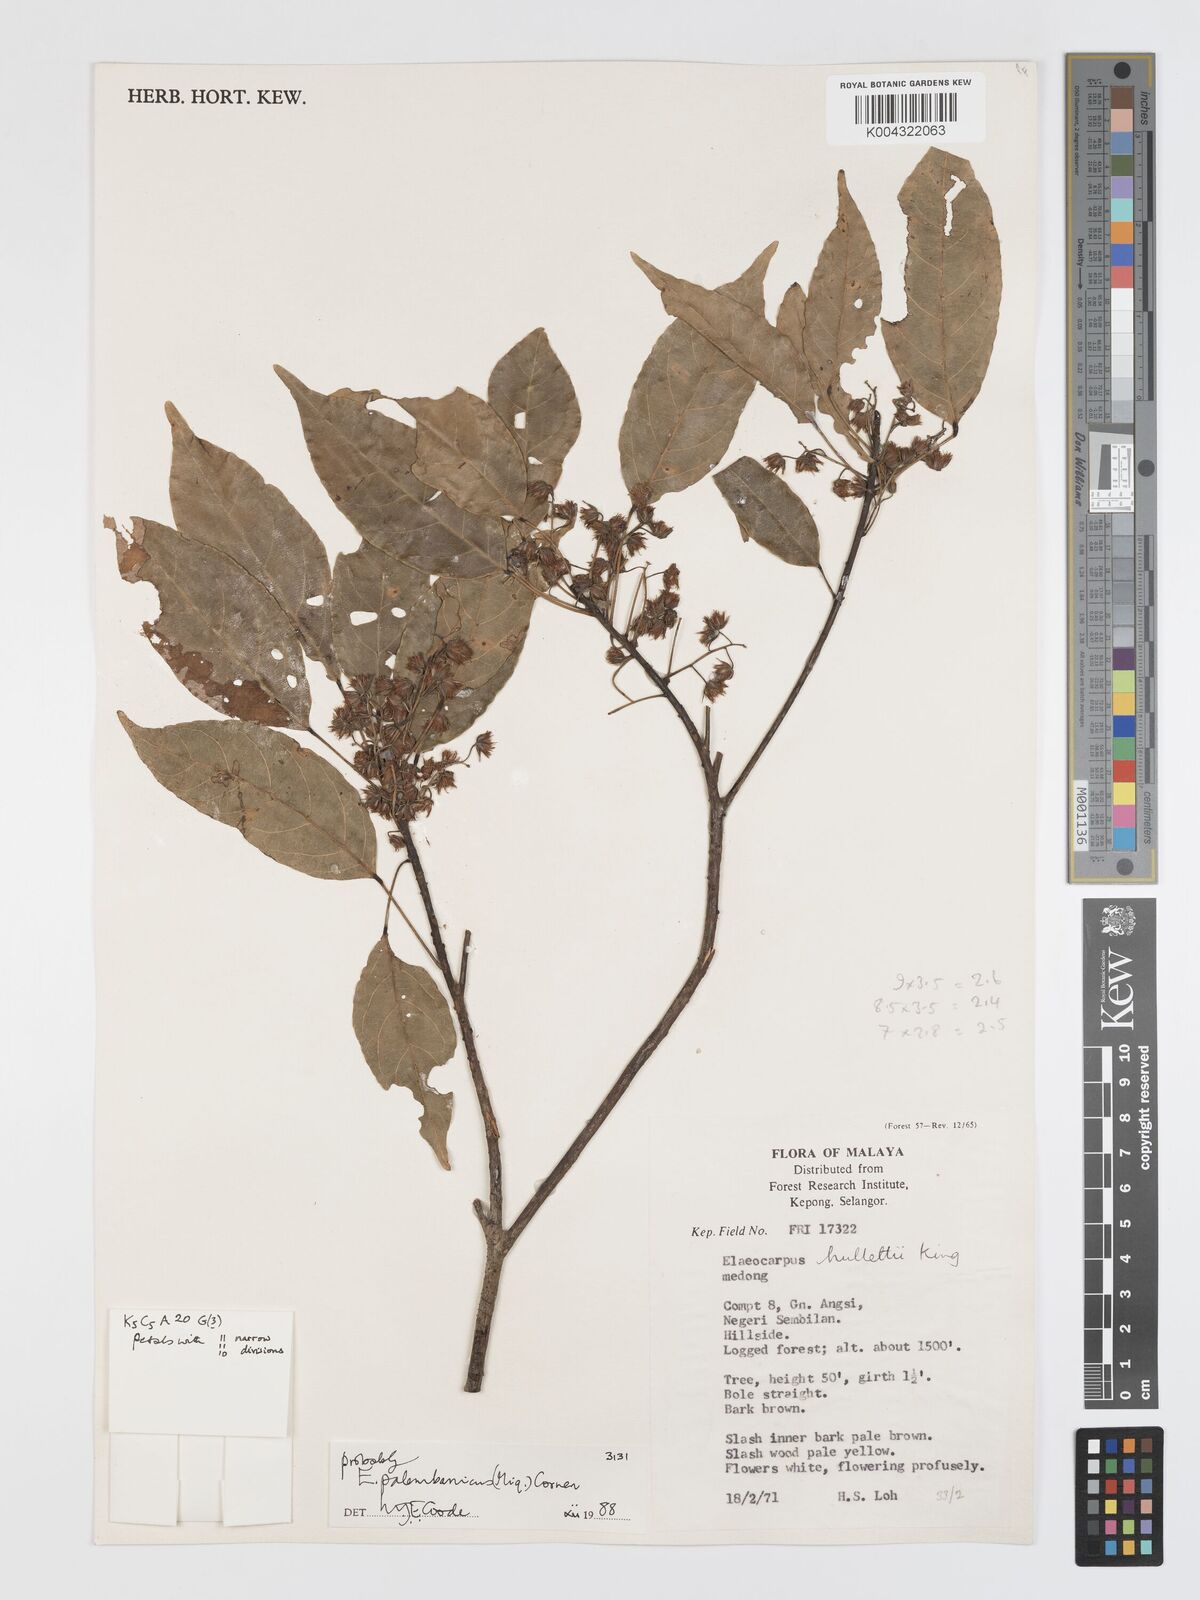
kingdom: Plantae
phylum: Tracheophyta
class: Magnoliopsida
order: Oxalidales
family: Elaeocarpaceae
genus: Elaeocarpus
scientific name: Elaeocarpus palembanicus
